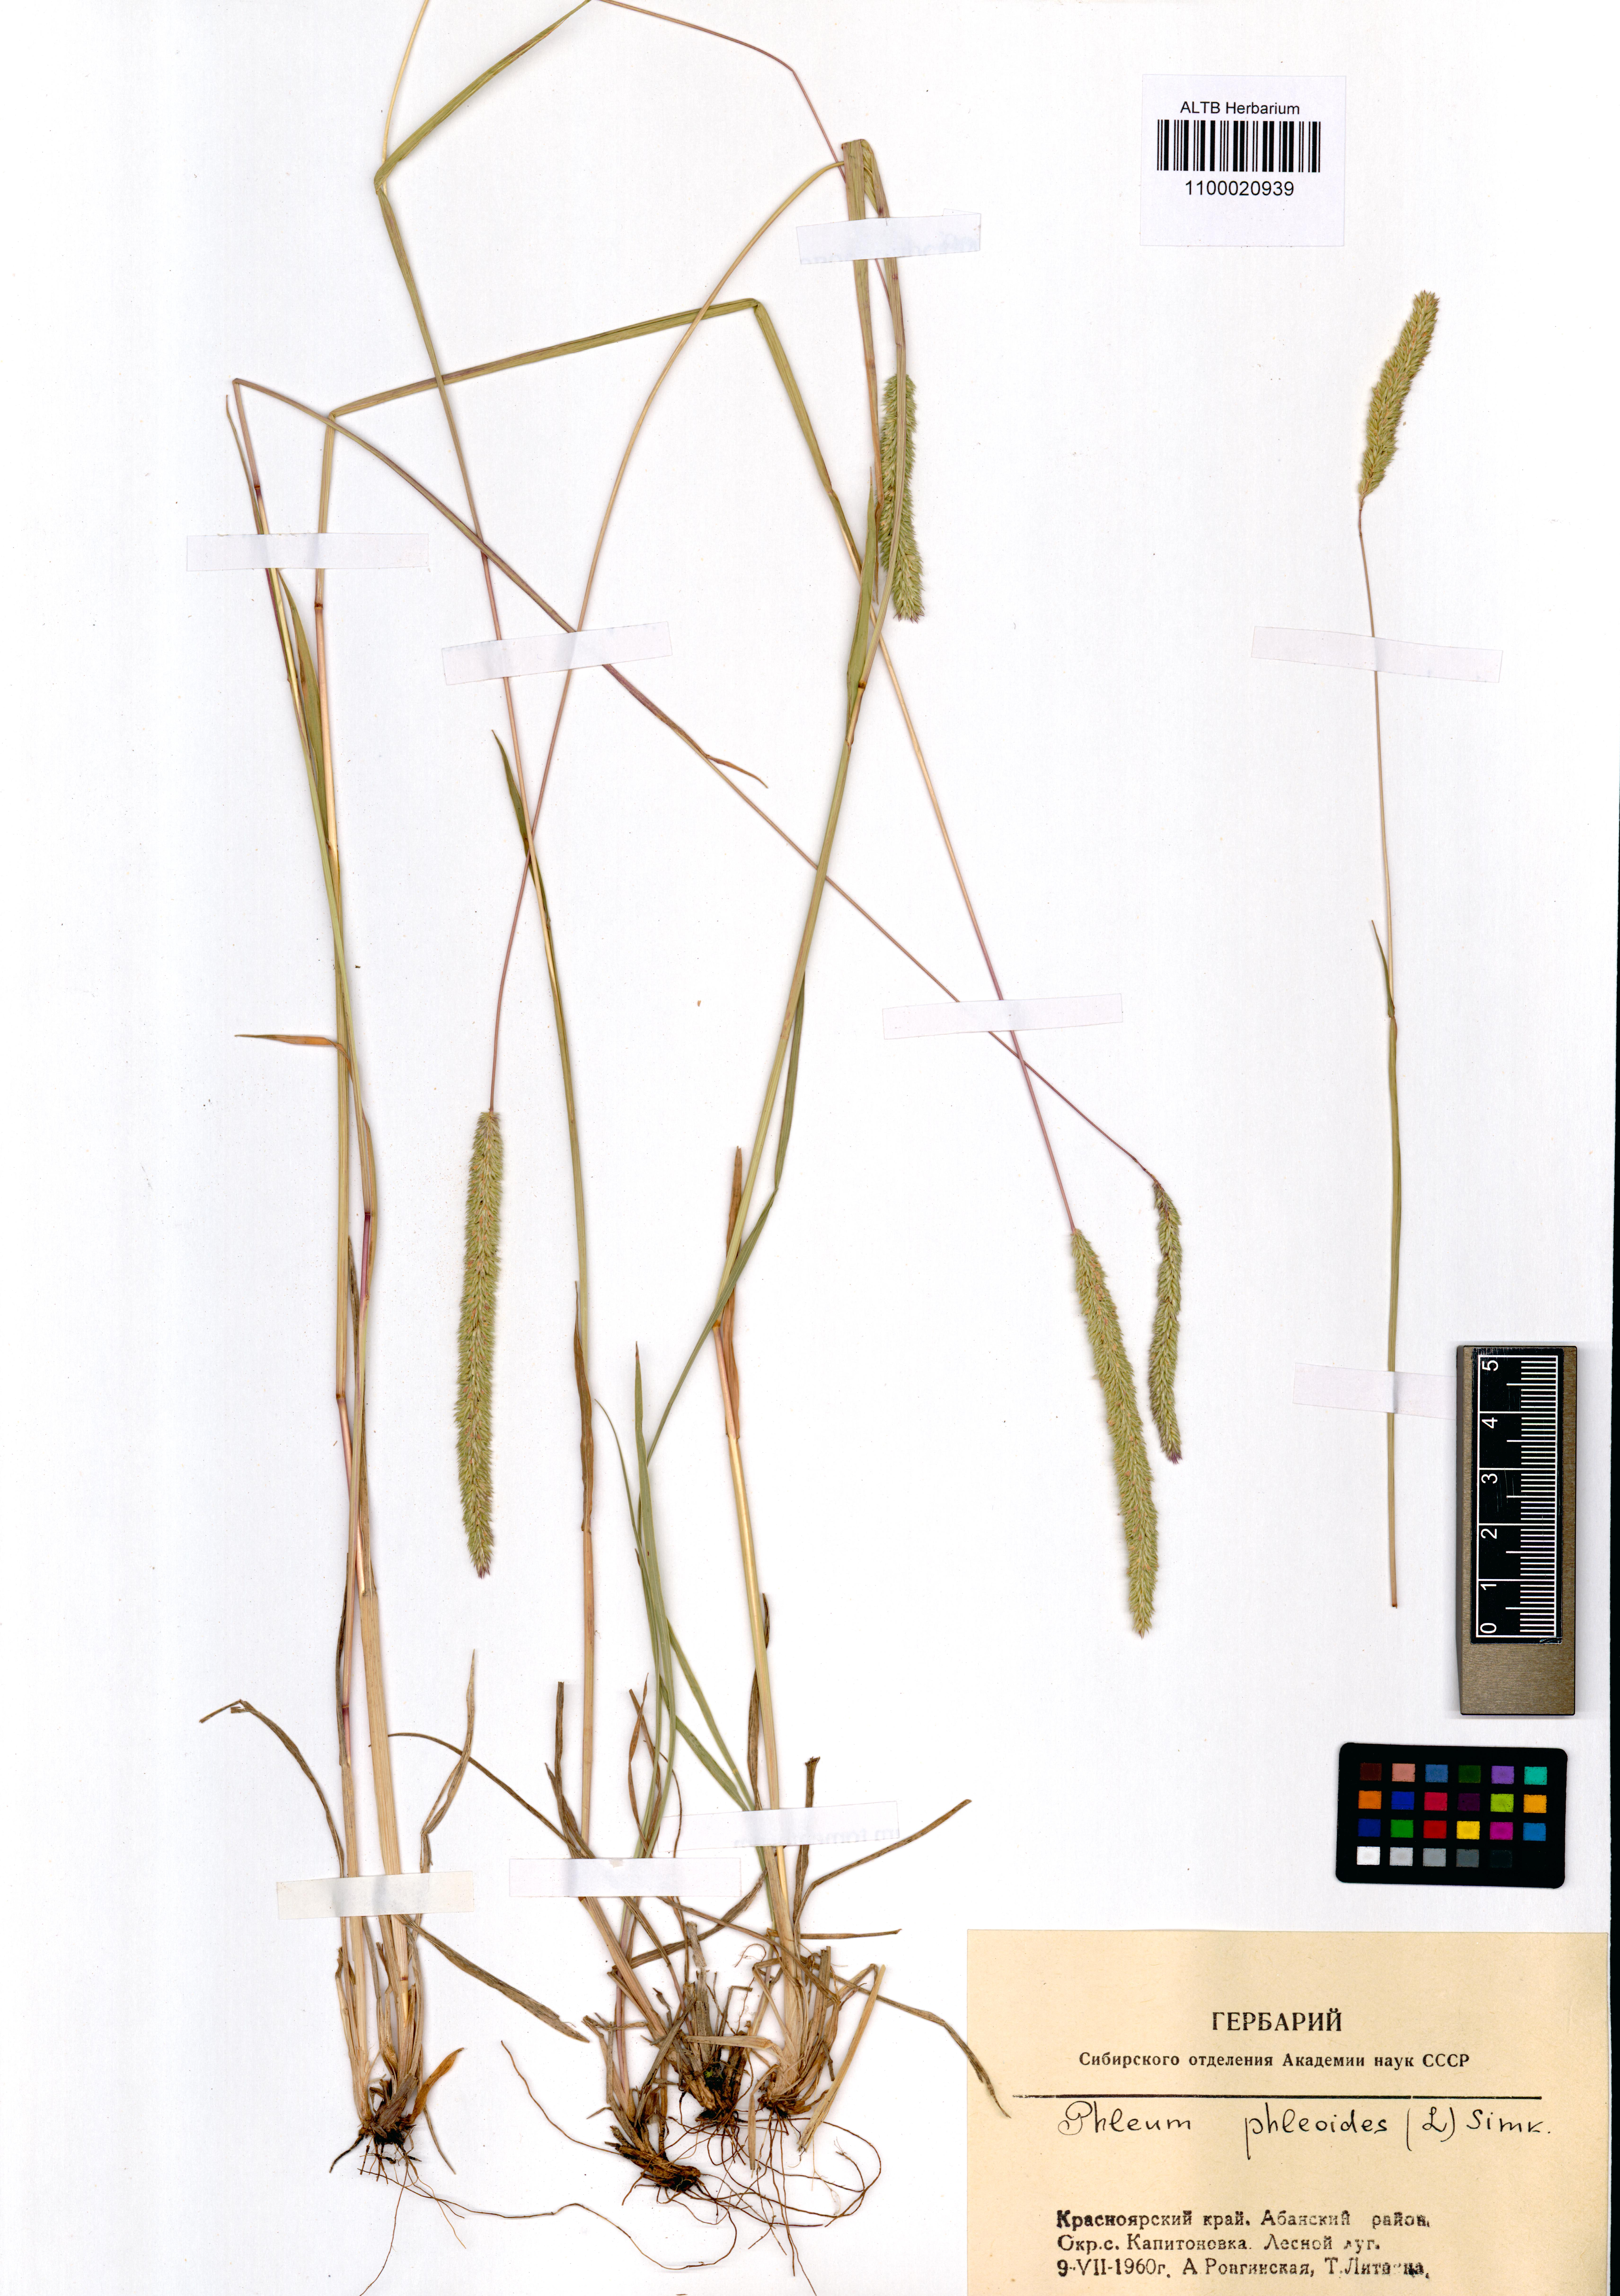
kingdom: Plantae
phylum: Tracheophyta
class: Liliopsida
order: Poales
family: Poaceae
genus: Phleum
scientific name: Phleum phleoides
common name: Purple-stem cat's-tail
